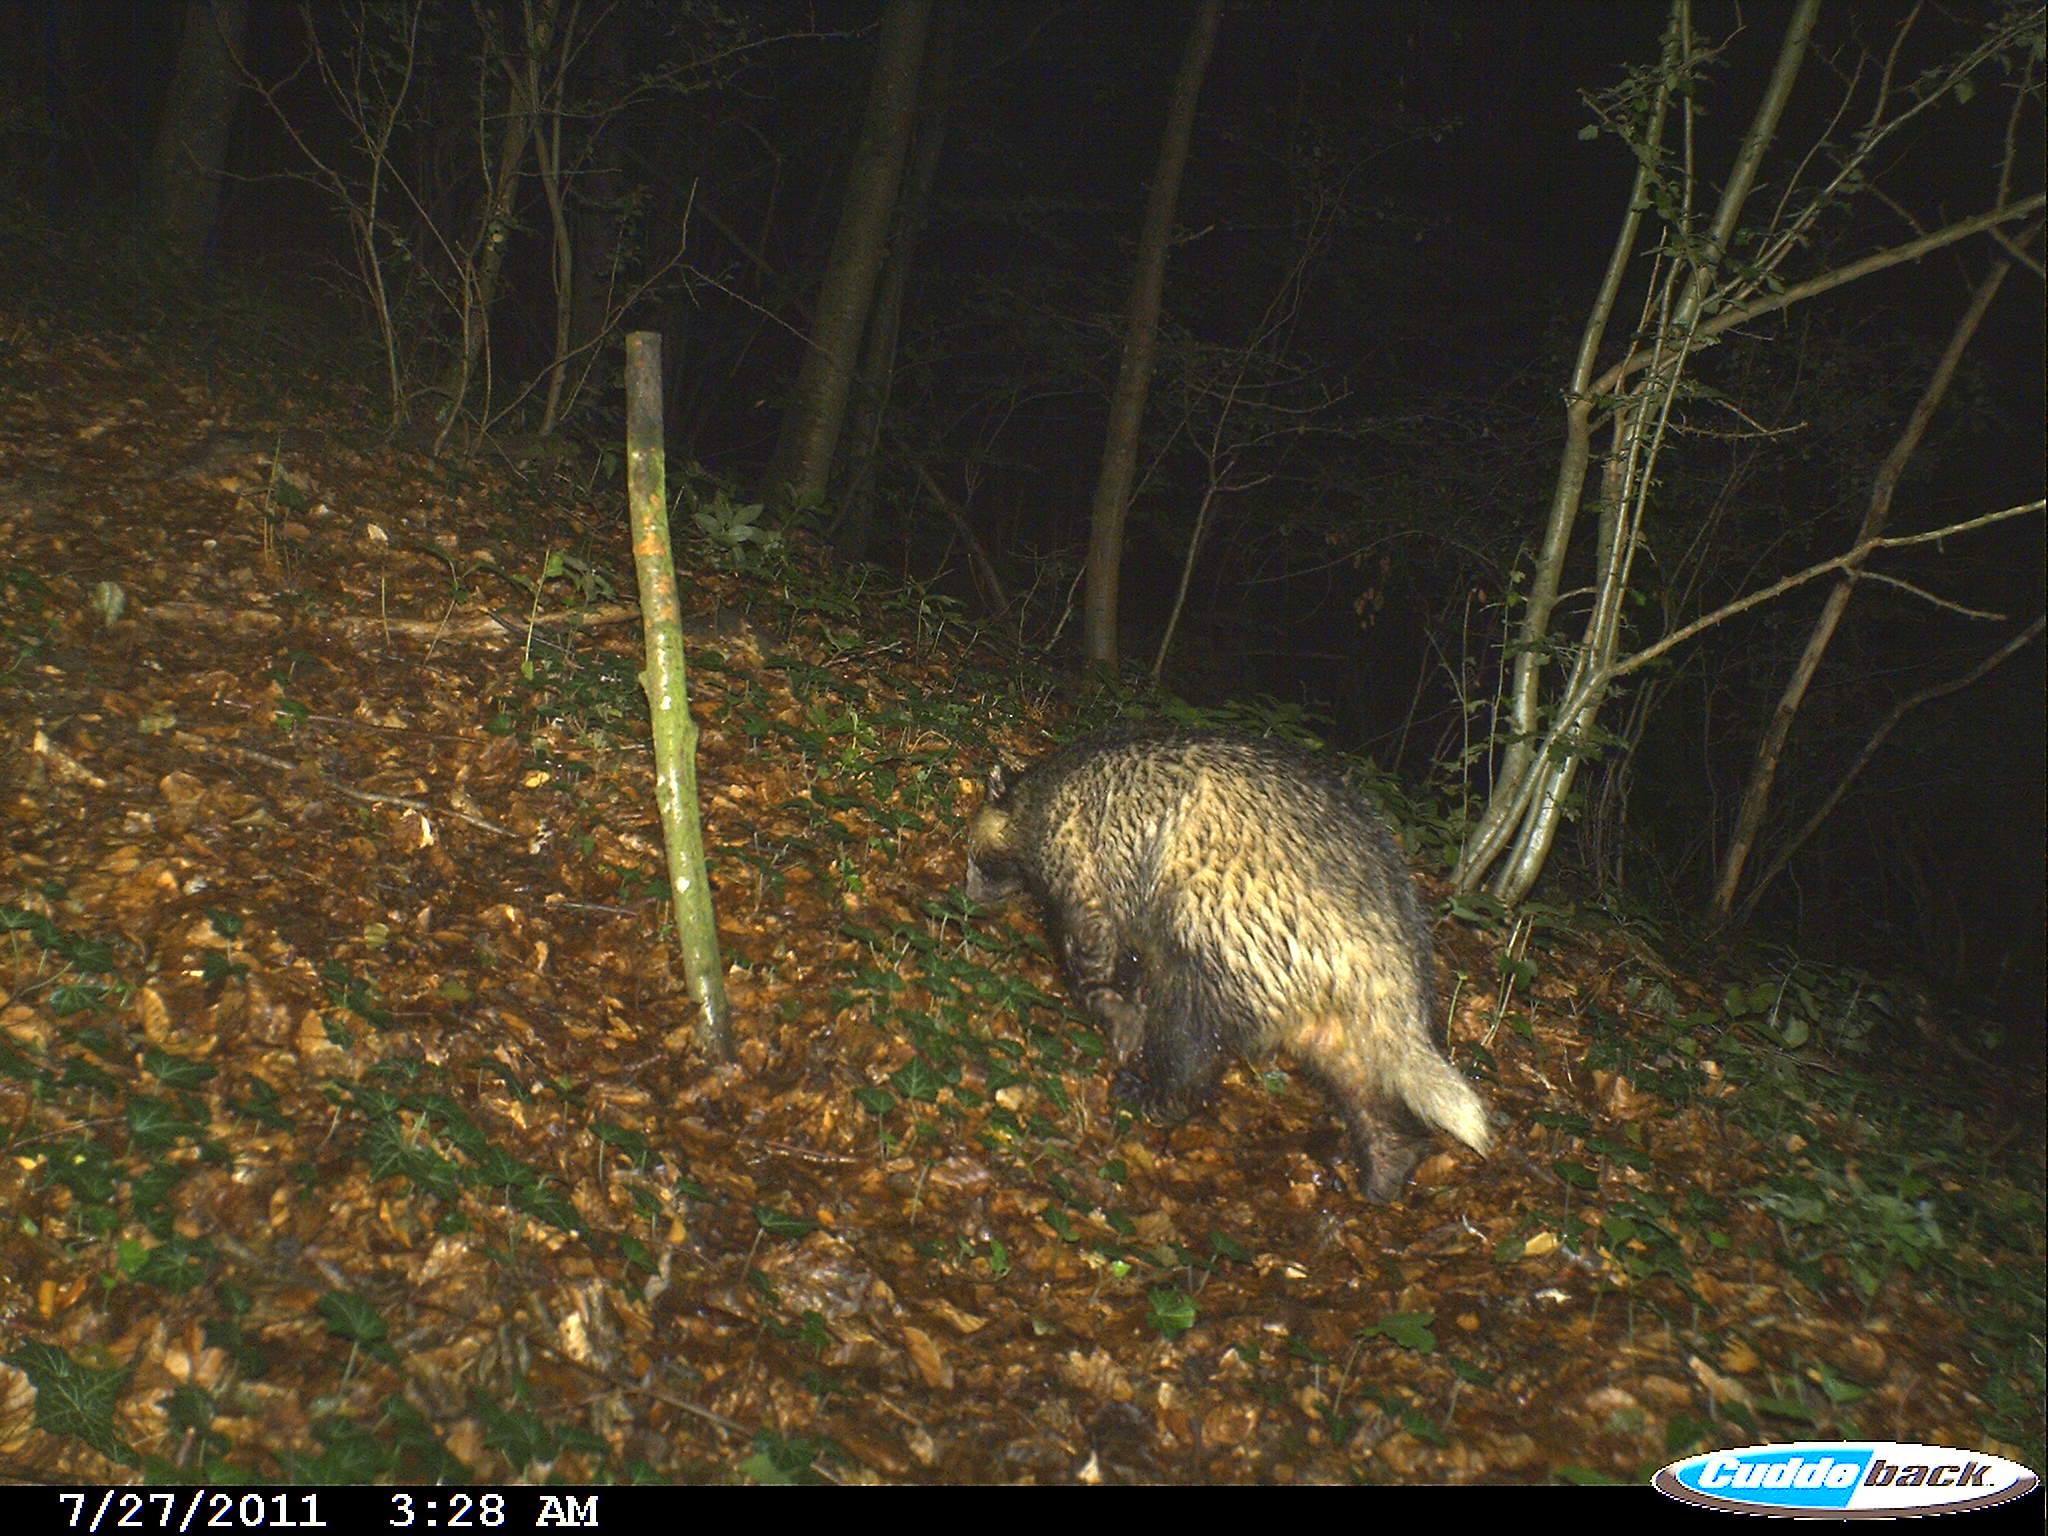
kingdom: Animalia
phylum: Chordata
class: Mammalia
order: Carnivora
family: Mustelidae
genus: Meles
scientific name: Meles meles
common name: Eurasian badger
